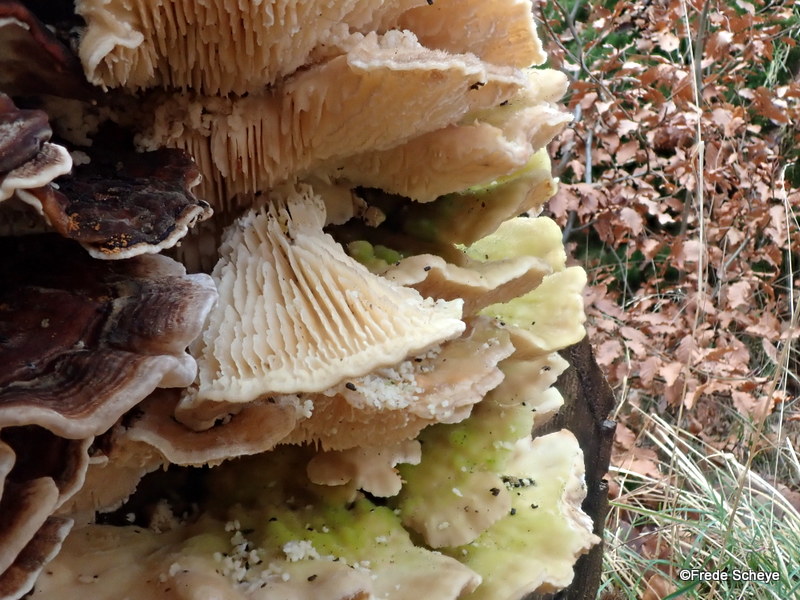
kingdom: Fungi
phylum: Basidiomycota
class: Agaricomycetes
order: Polyporales
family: Polyporaceae
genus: Lenzites
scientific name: Lenzites betulinus
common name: birke-læderporesvamp
